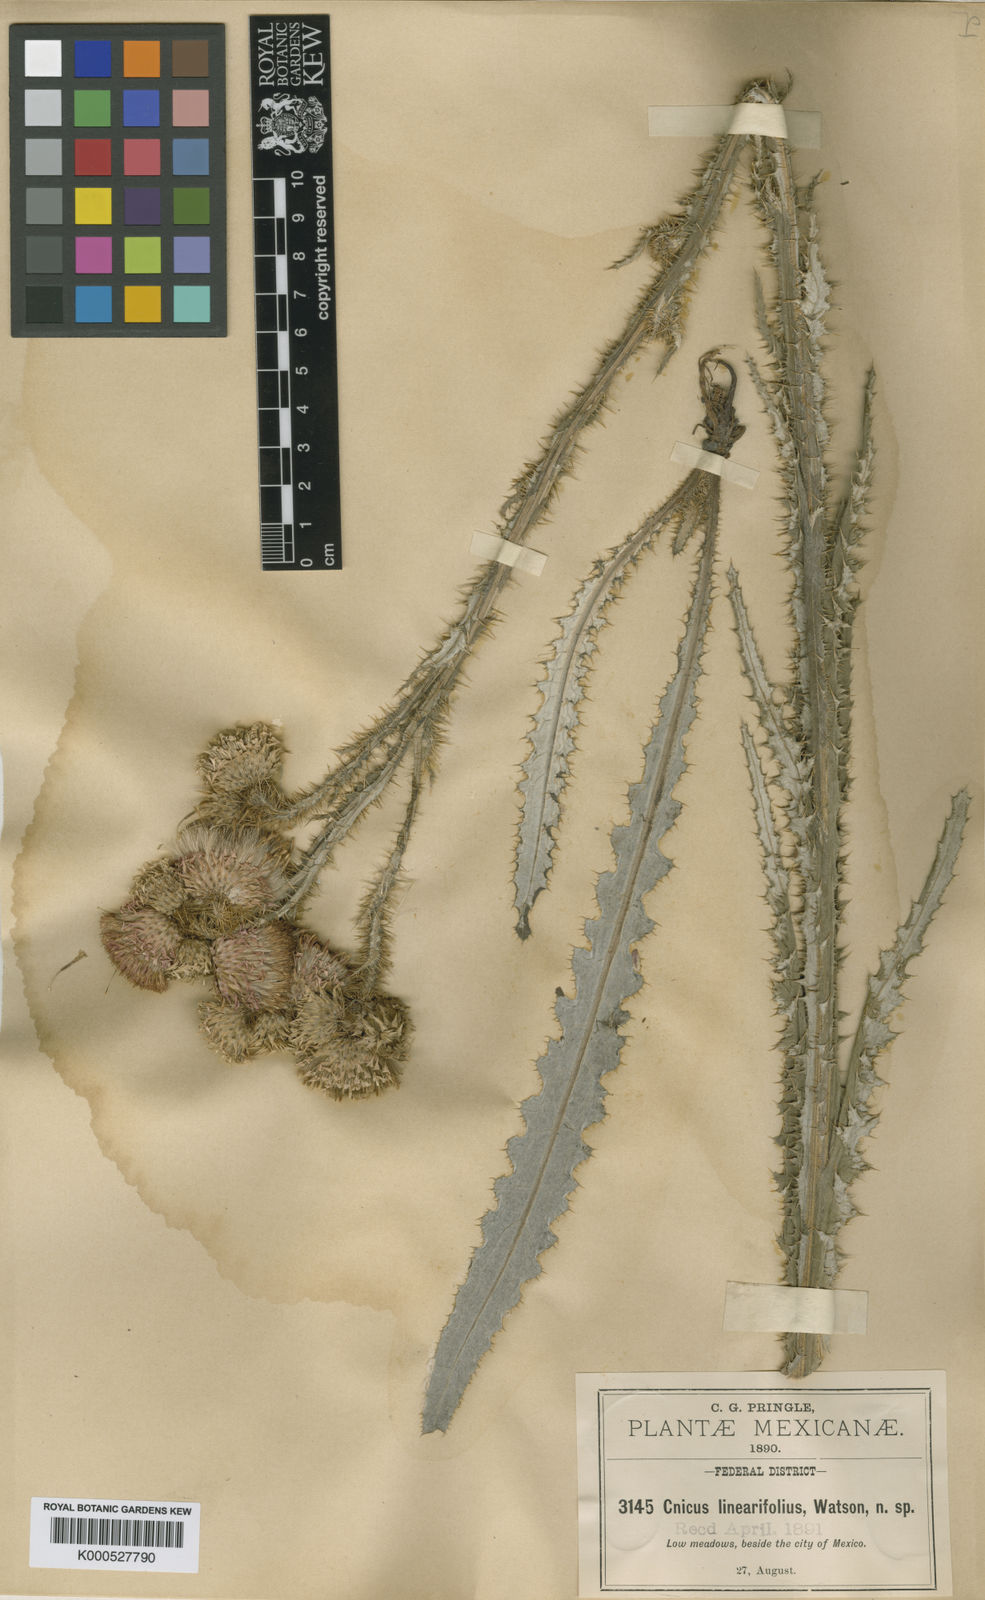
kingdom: Plantae
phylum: Tracheophyta
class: Magnoliopsida
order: Asterales
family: Asteraceae
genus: Cirsium
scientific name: Cirsium
